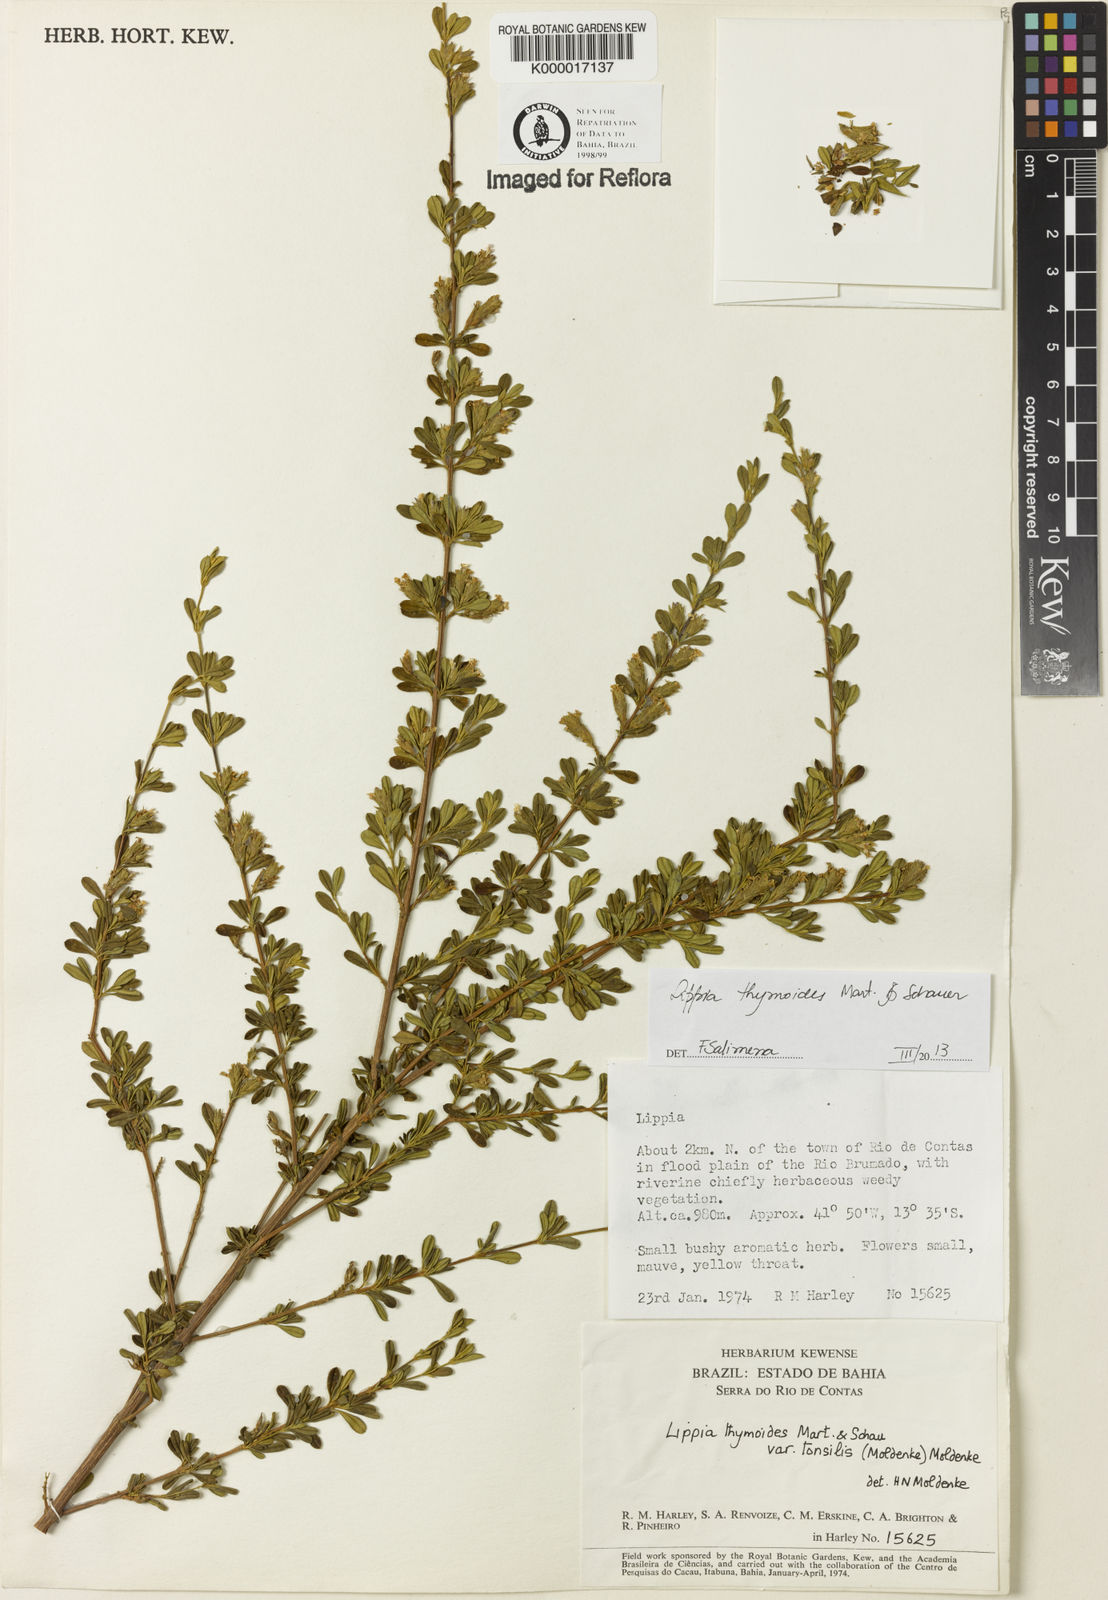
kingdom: Plantae
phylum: Tracheophyta
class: Magnoliopsida
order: Lamiales
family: Verbenaceae
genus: Lippia
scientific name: Lippia thymoides
